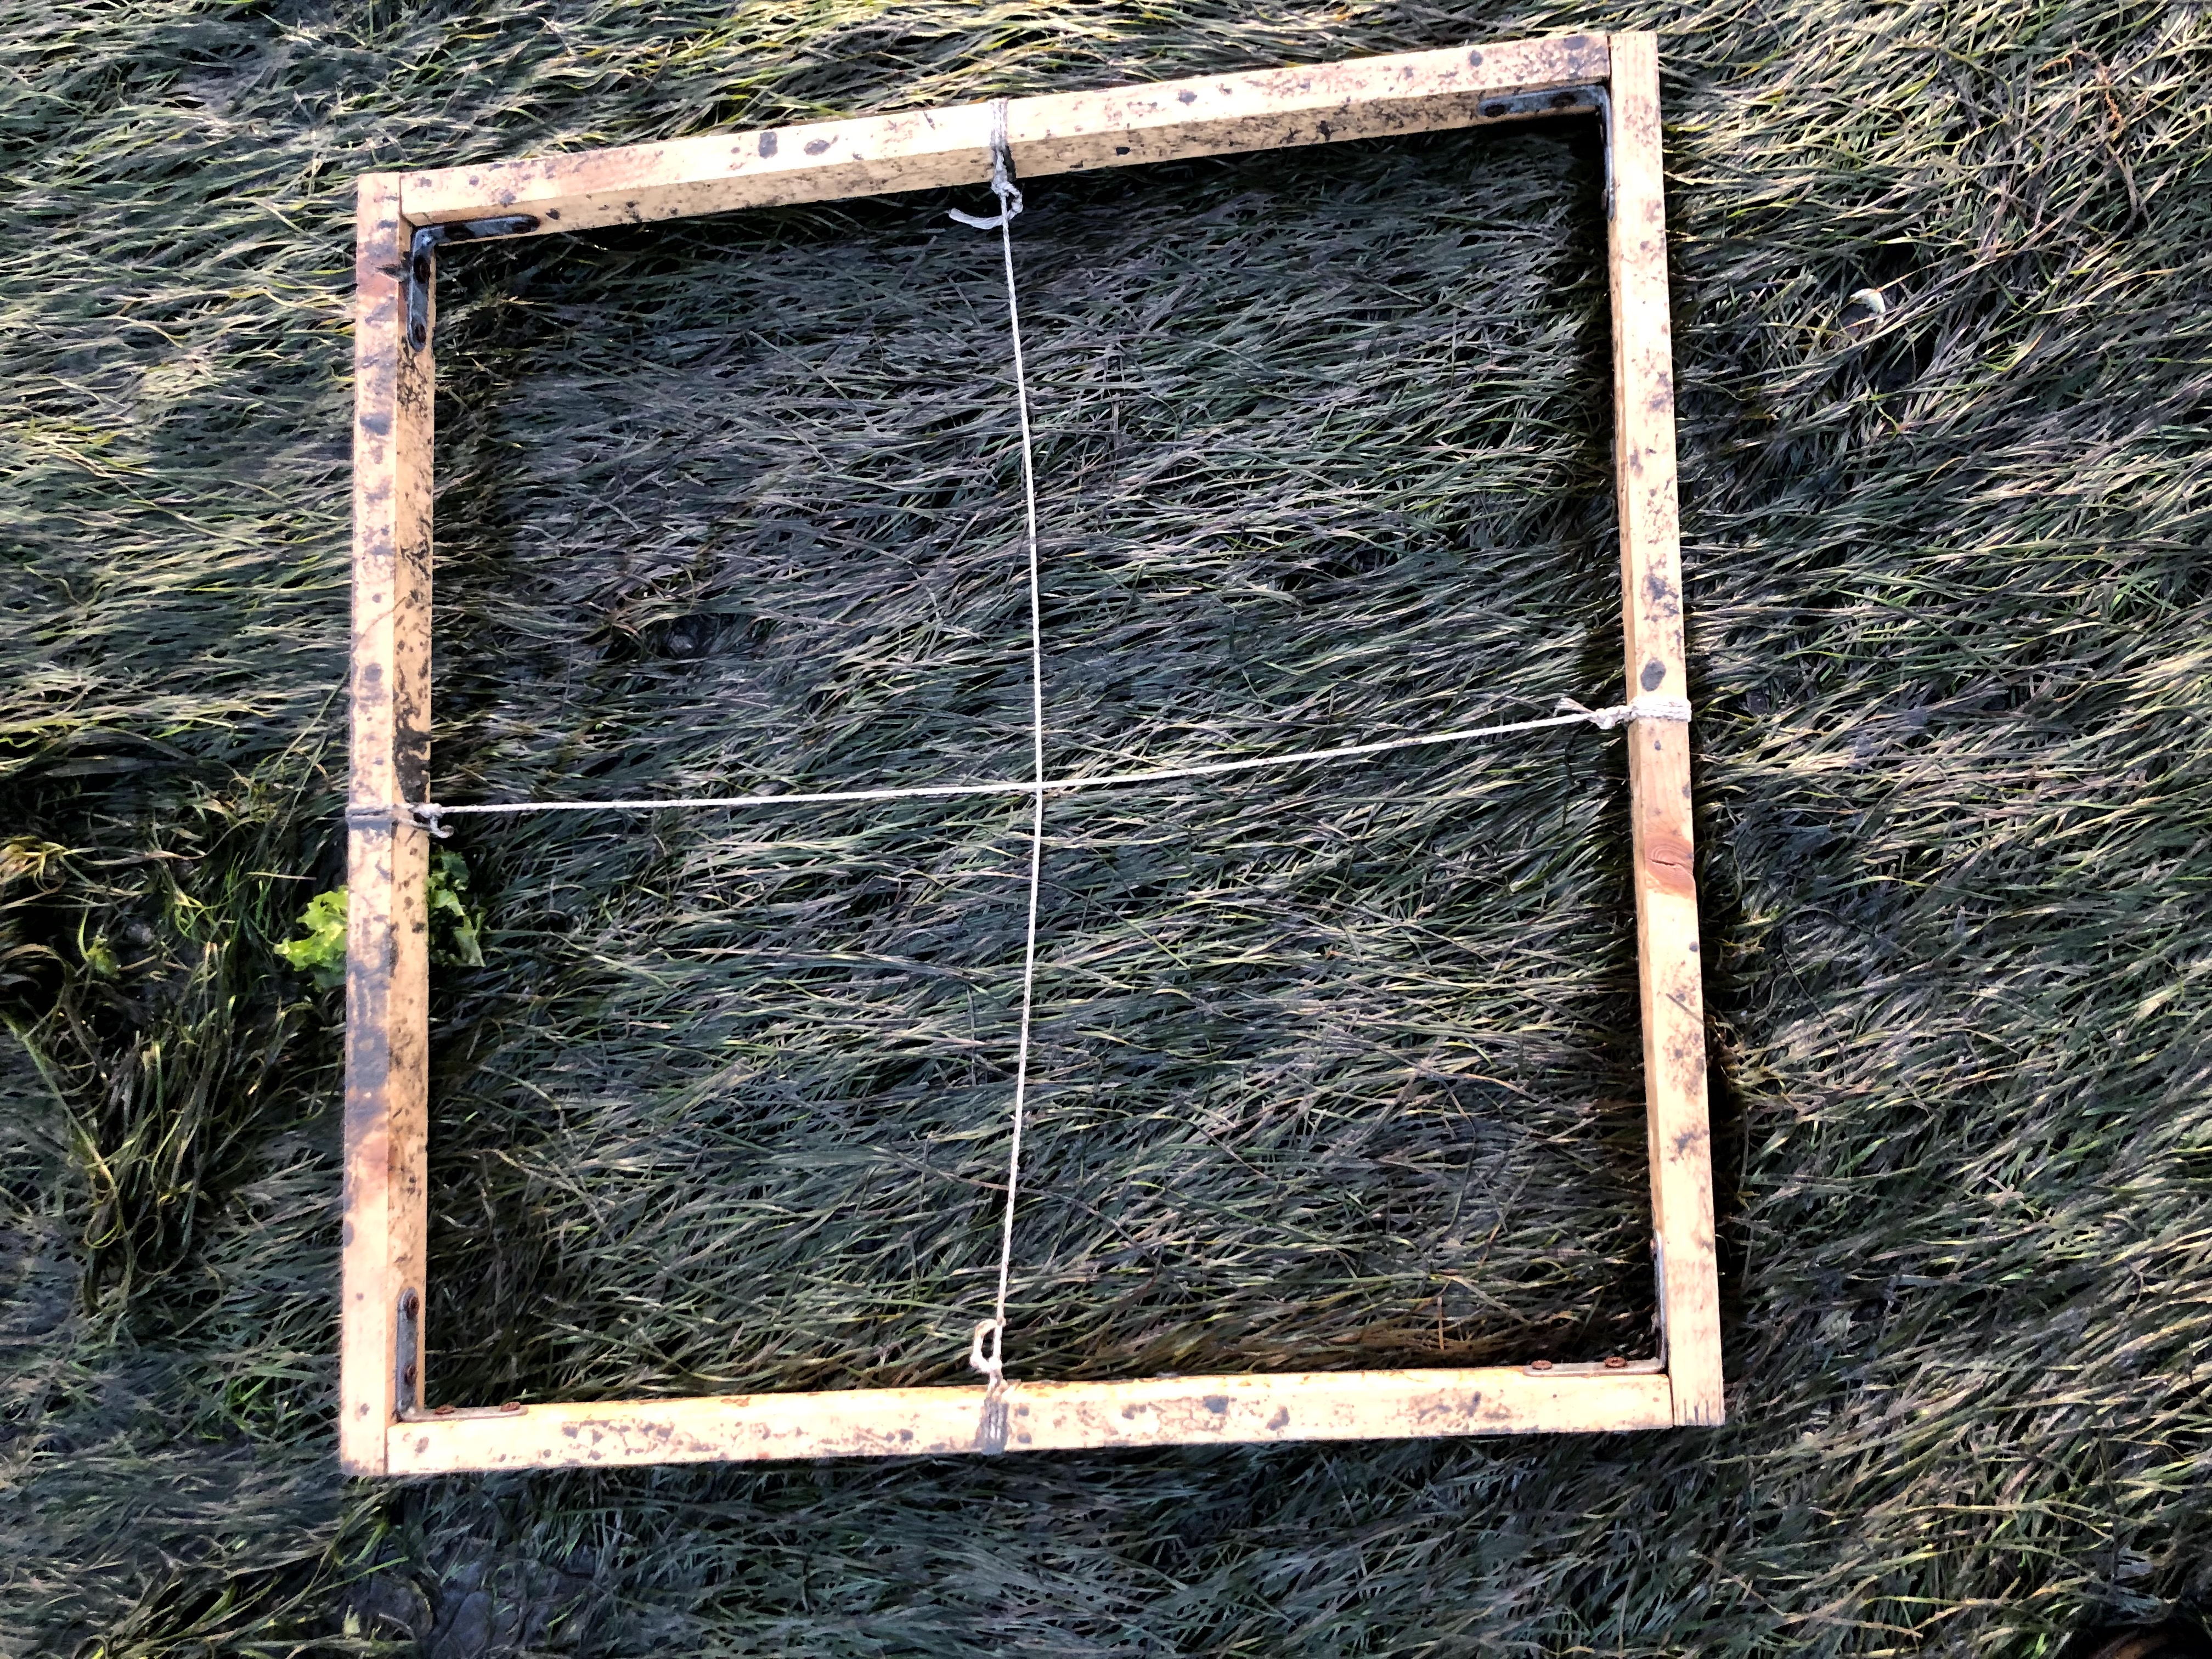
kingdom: Plantae
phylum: Tracheophyta
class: Liliopsida
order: Alismatales
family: Zosteraceae
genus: Zostera
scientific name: Zostera noltii
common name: Dwarf eelgrass
